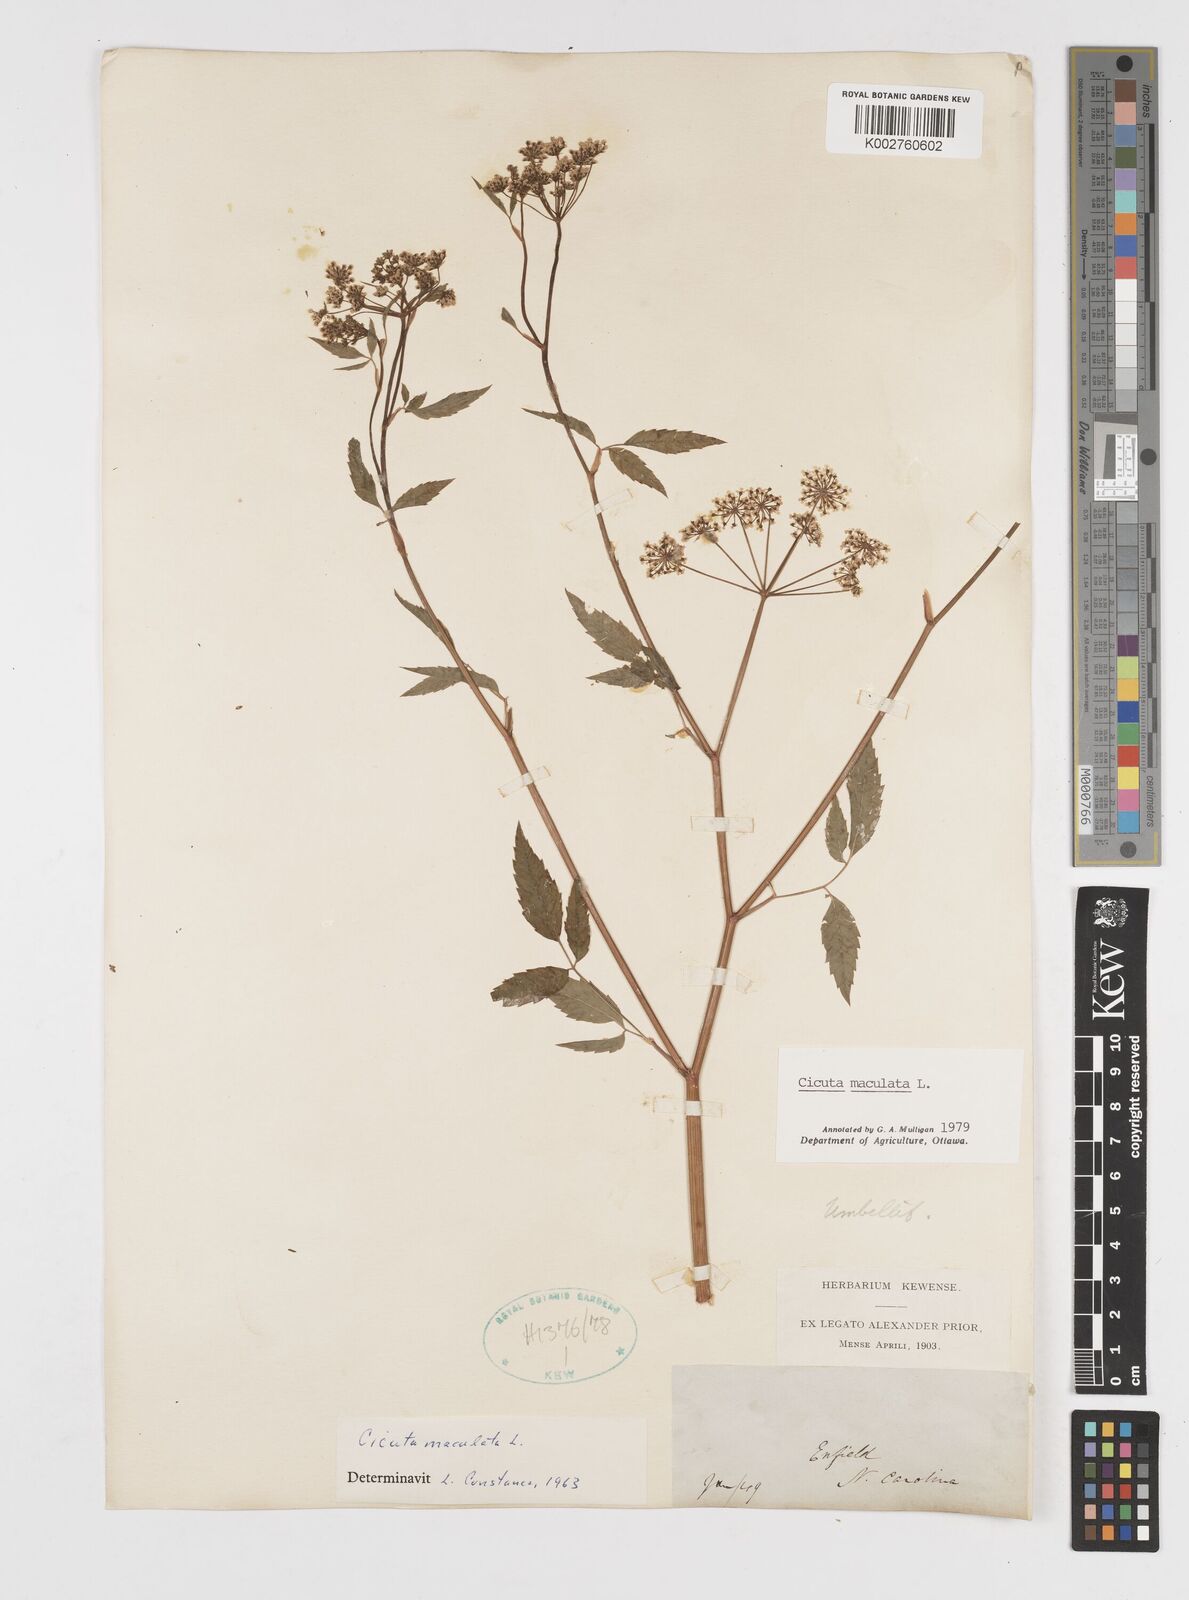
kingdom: Plantae
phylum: Tracheophyta
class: Magnoliopsida
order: Apiales
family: Apiaceae
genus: Cicuta
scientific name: Cicuta maculata
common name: Spotted cowbane
